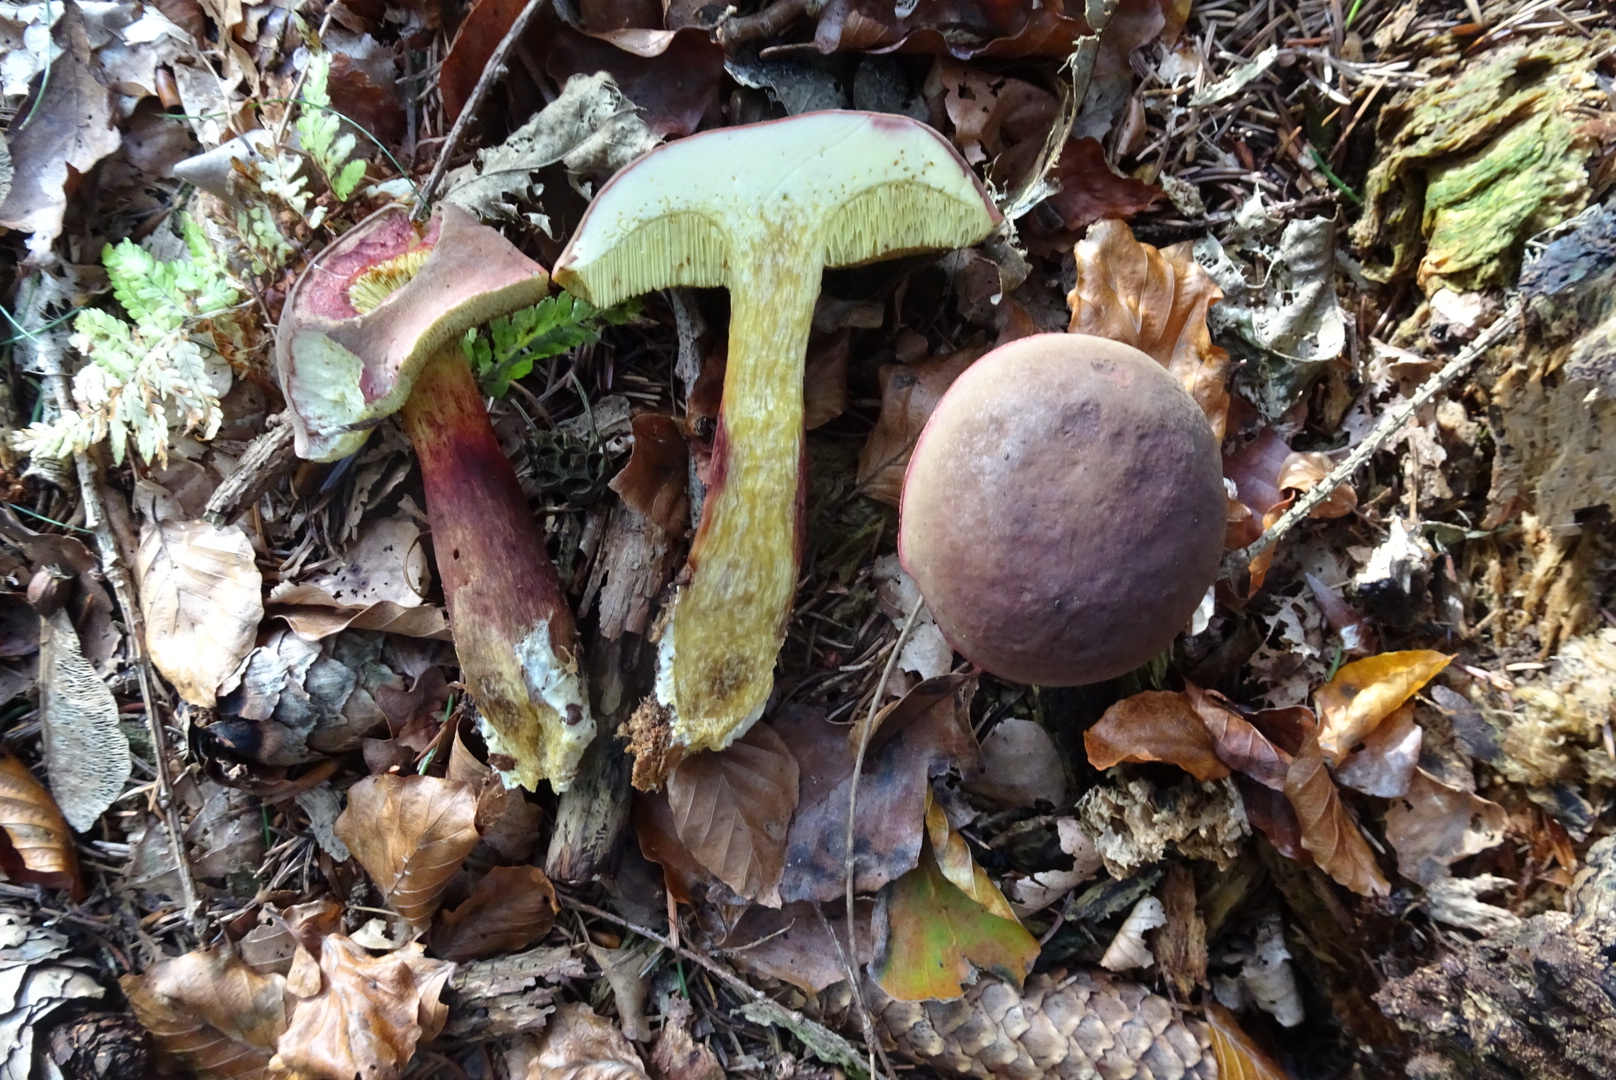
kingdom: Fungi
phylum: Basidiomycota
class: Agaricomycetes
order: Boletales
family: Boletaceae
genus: Xerocomellus
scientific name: Xerocomellus pruinatus
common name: dugget rørhat
